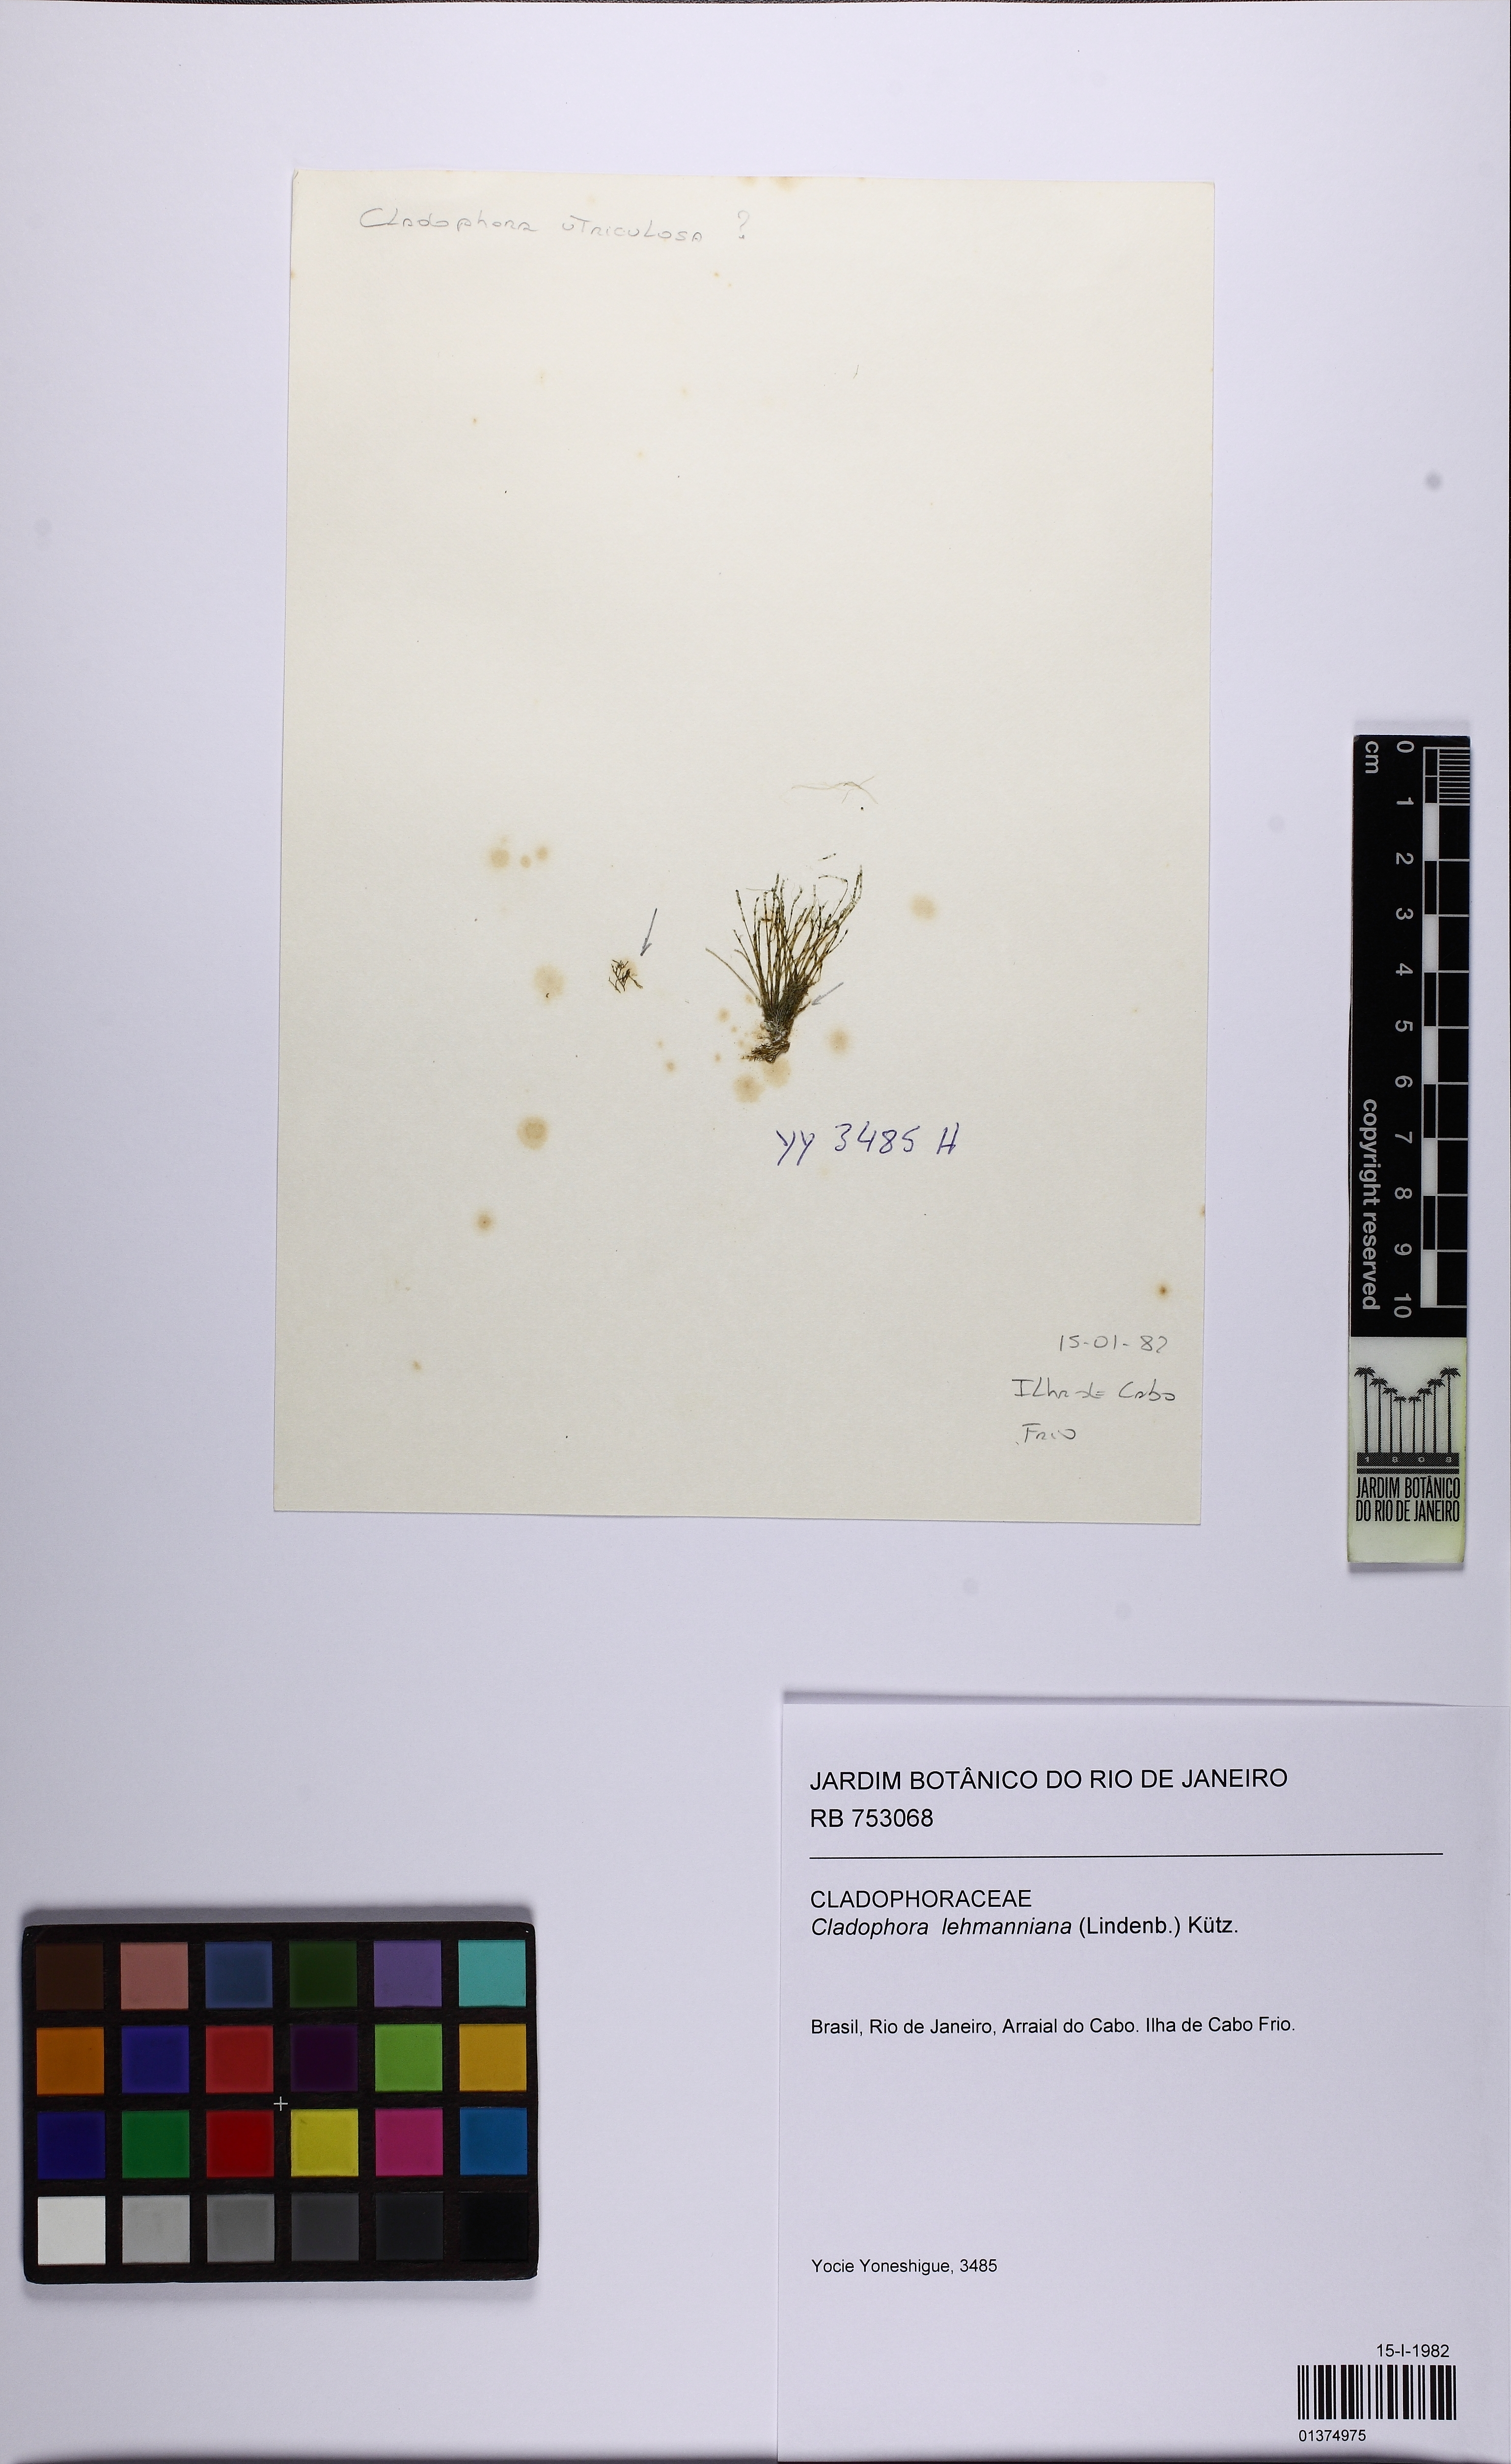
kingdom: Plantae
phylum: Chlorophyta
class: Ulvophyceae
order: Cladophorales
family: Cladophoraceae
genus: Cladophora
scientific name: Cladophora lehmanniana
